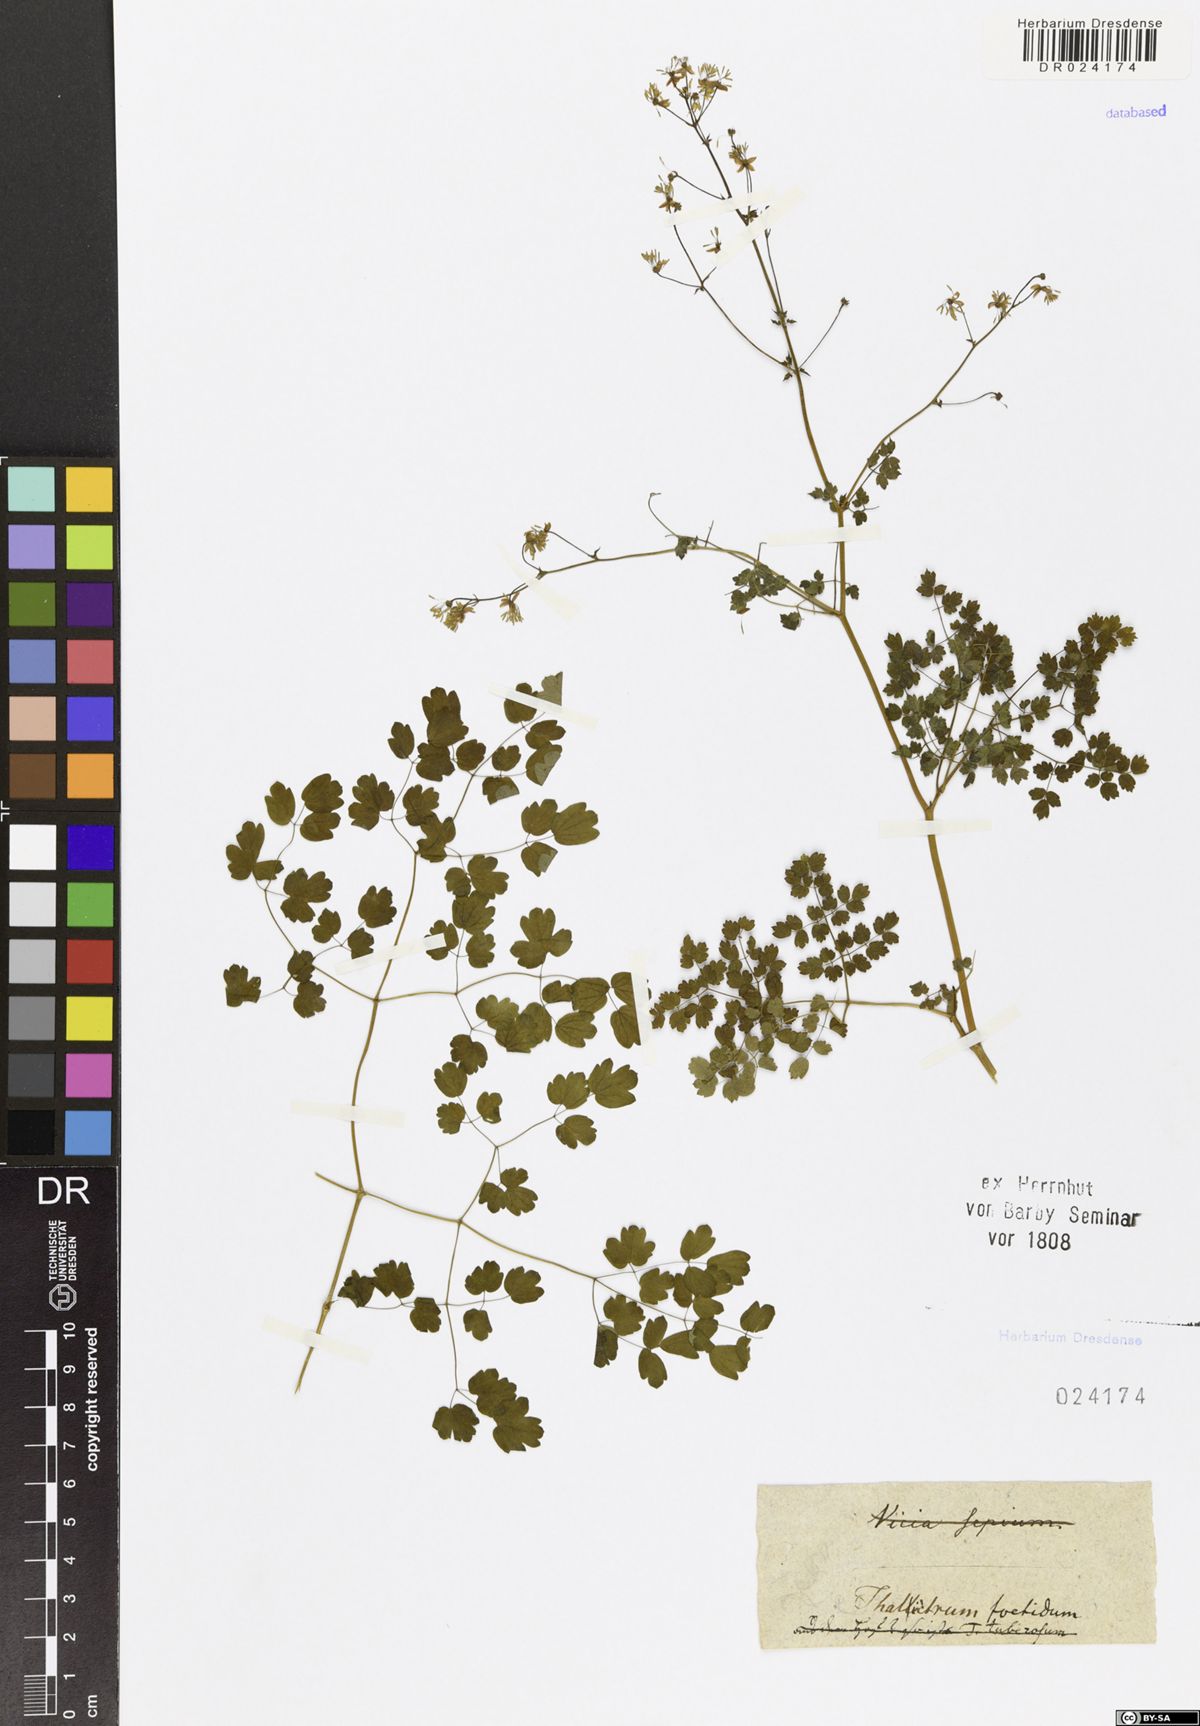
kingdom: Plantae
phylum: Tracheophyta
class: Magnoliopsida
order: Ranunculales
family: Ranunculaceae
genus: Thalictrum
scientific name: Thalictrum foetidum
